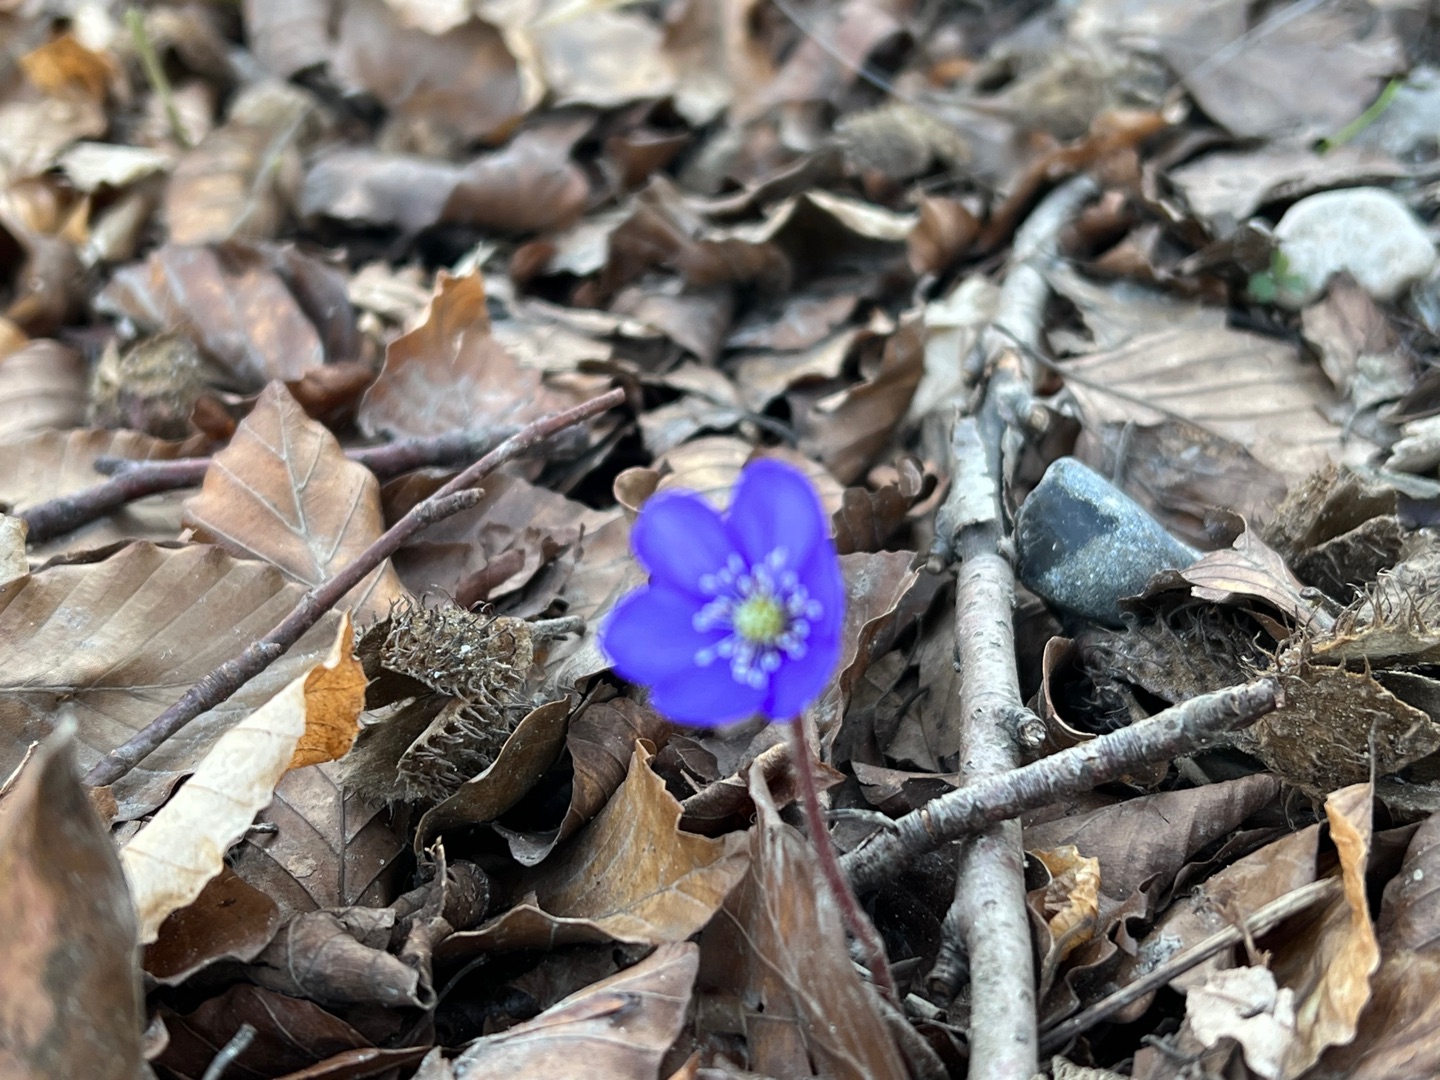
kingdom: Plantae
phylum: Tracheophyta
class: Magnoliopsida
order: Ranunculales
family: Ranunculaceae
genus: Hepatica
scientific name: Hepatica nobilis
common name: Blå anemone
